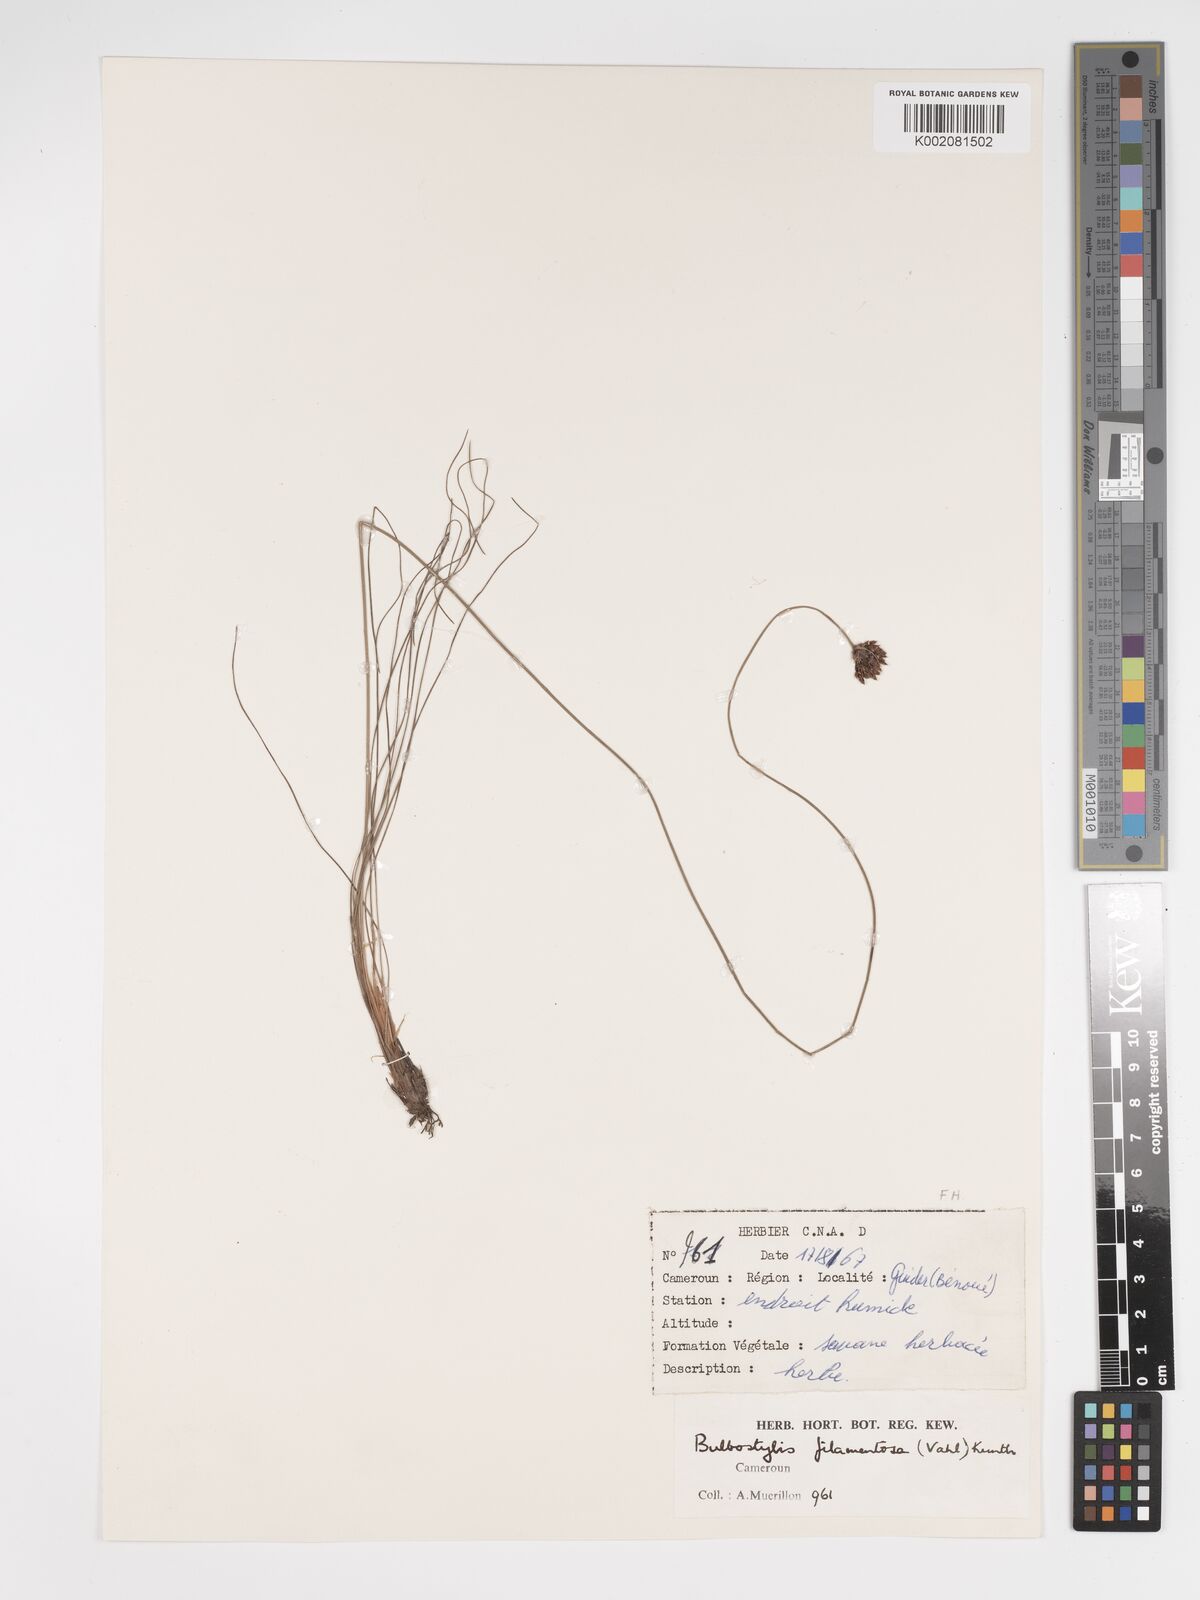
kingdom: Plantae
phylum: Tracheophyta
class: Liliopsida
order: Poales
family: Cyperaceae
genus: Bulbostylis
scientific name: Bulbostylis scabricaulis
